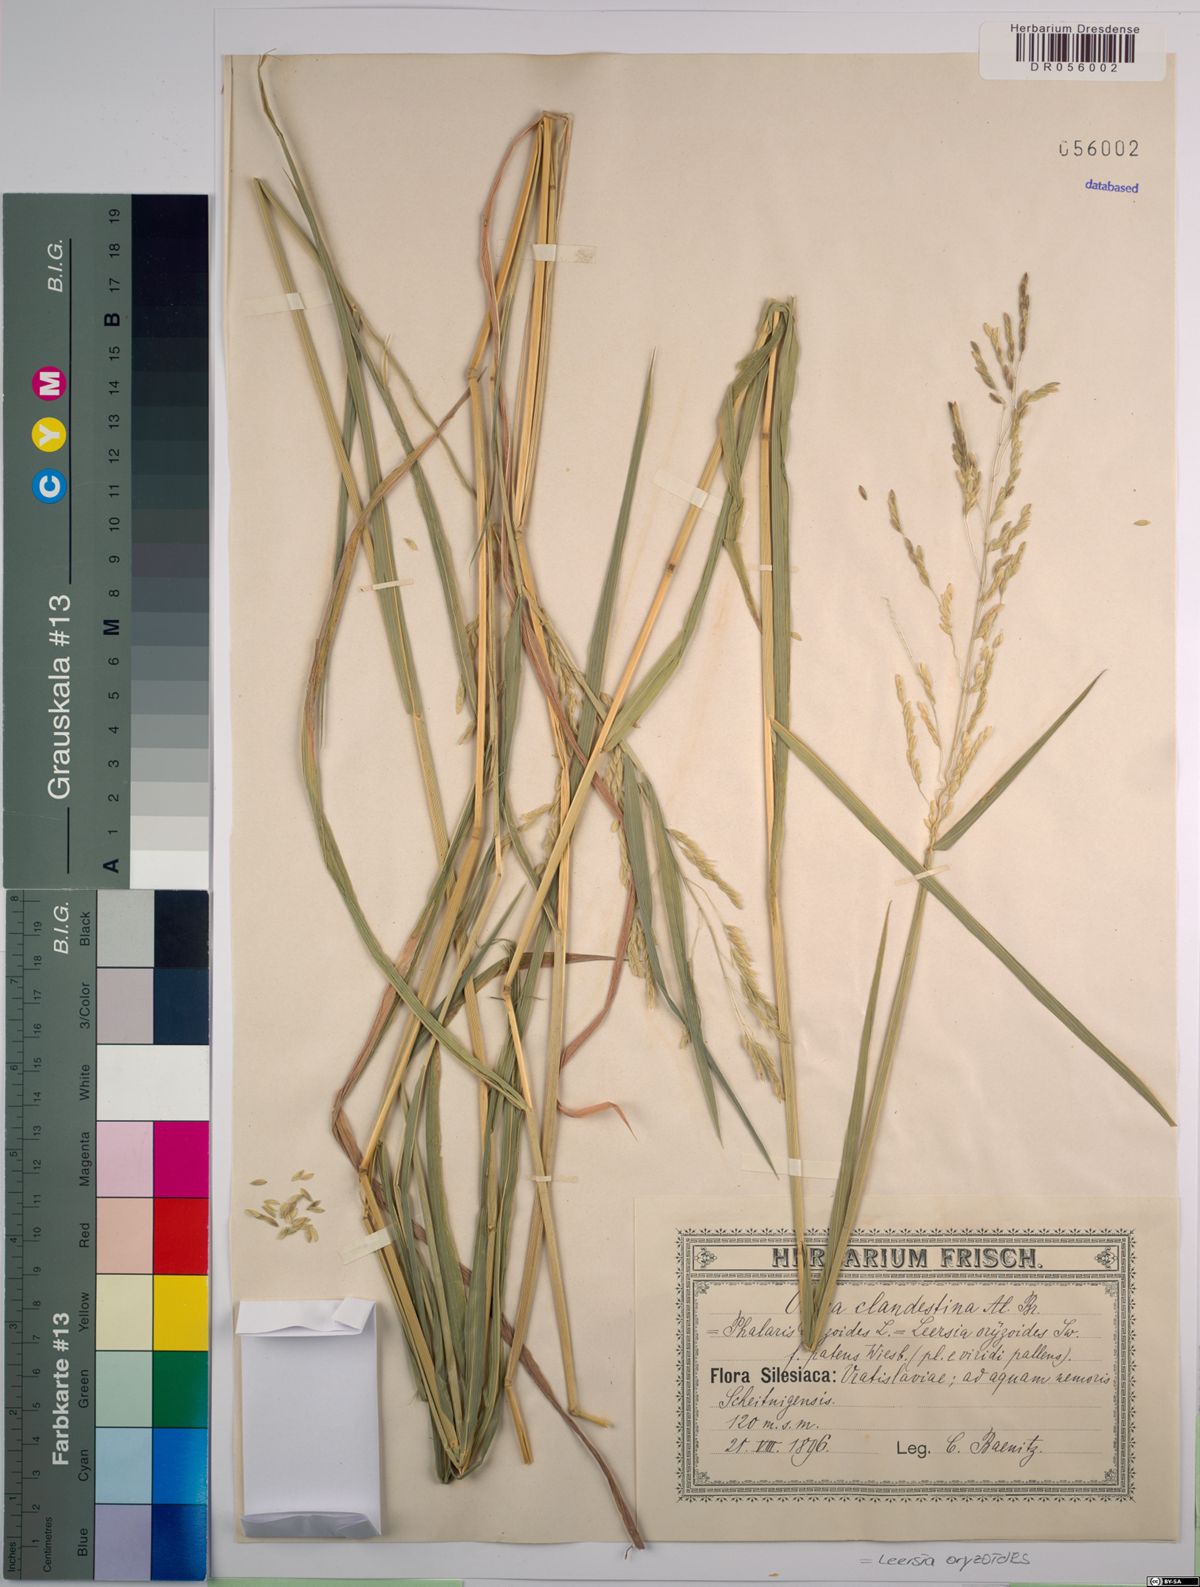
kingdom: Plantae
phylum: Tracheophyta
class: Liliopsida
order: Poales
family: Poaceae
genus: Leersia
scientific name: Leersia oryzoides
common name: Cut-grass
